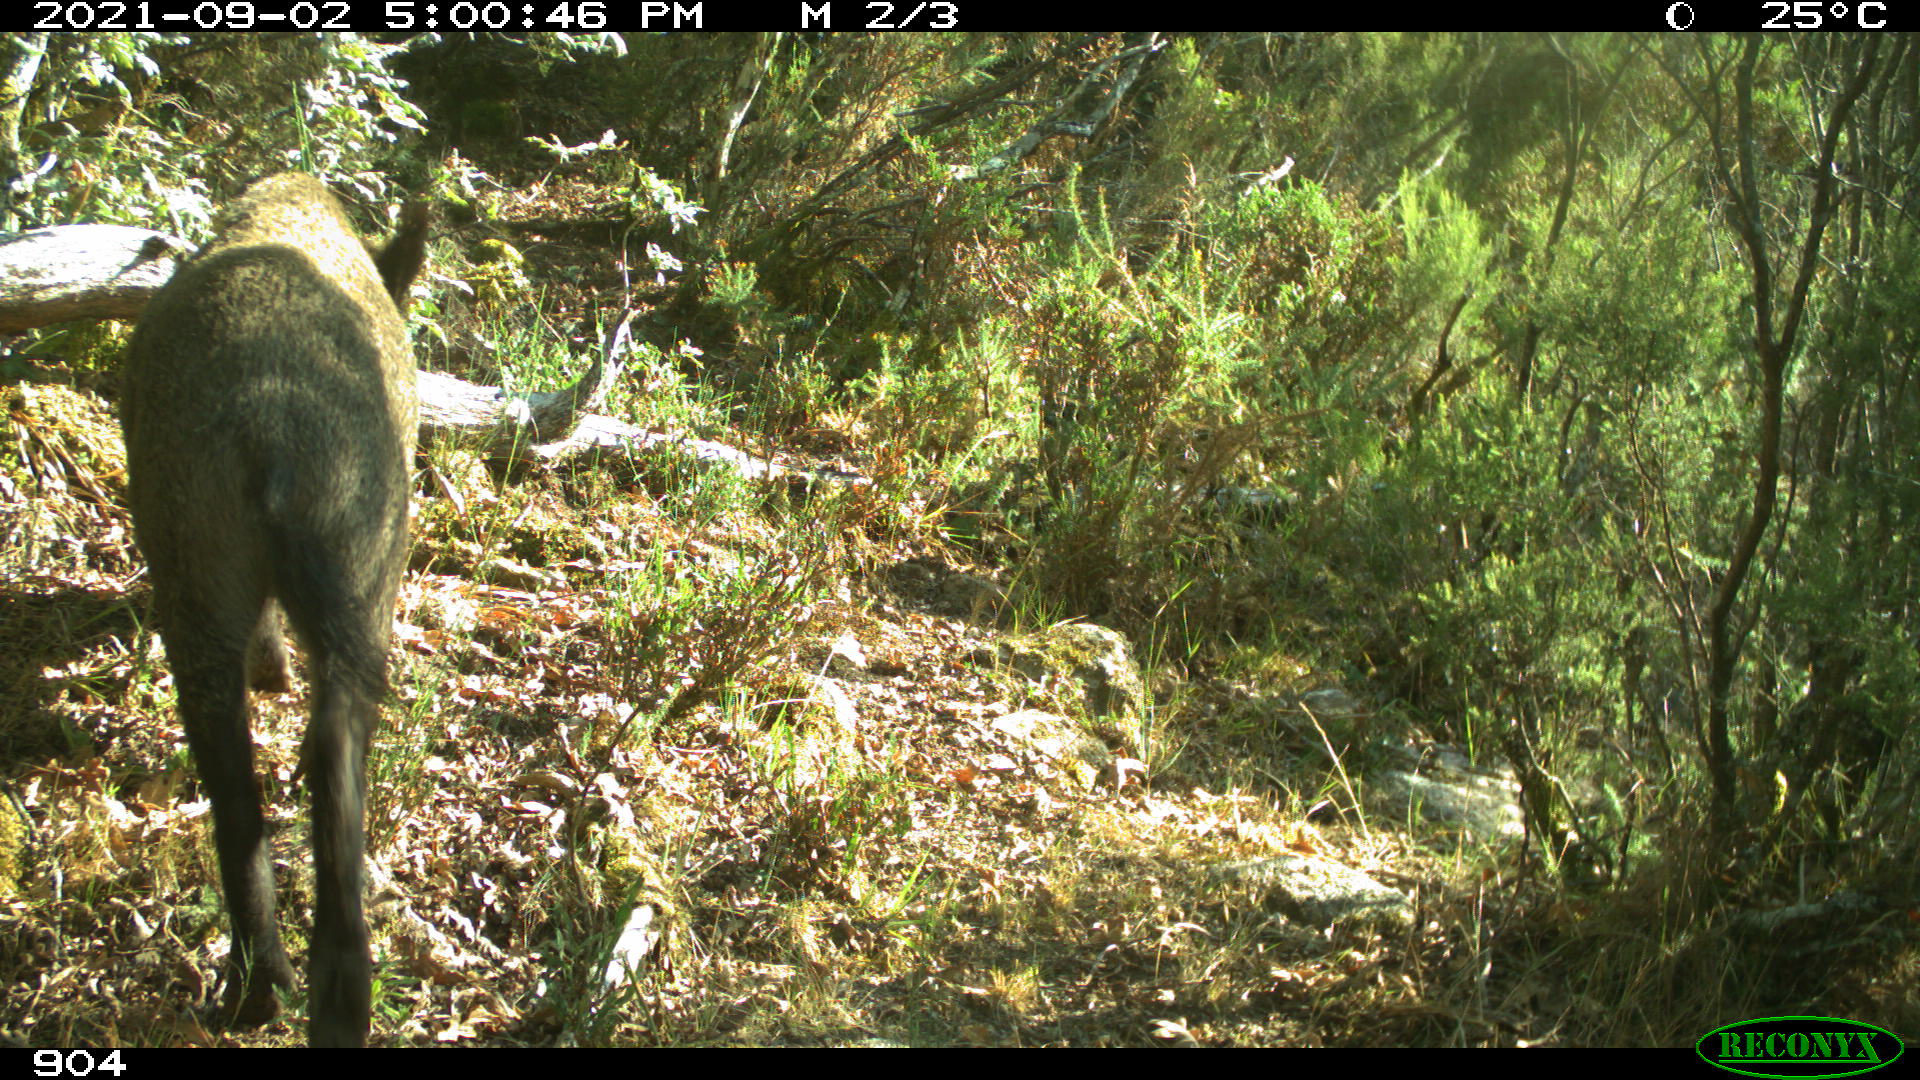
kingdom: Animalia
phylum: Chordata
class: Mammalia
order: Artiodactyla
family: Suidae
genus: Sus
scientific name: Sus scrofa
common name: Wild boar
